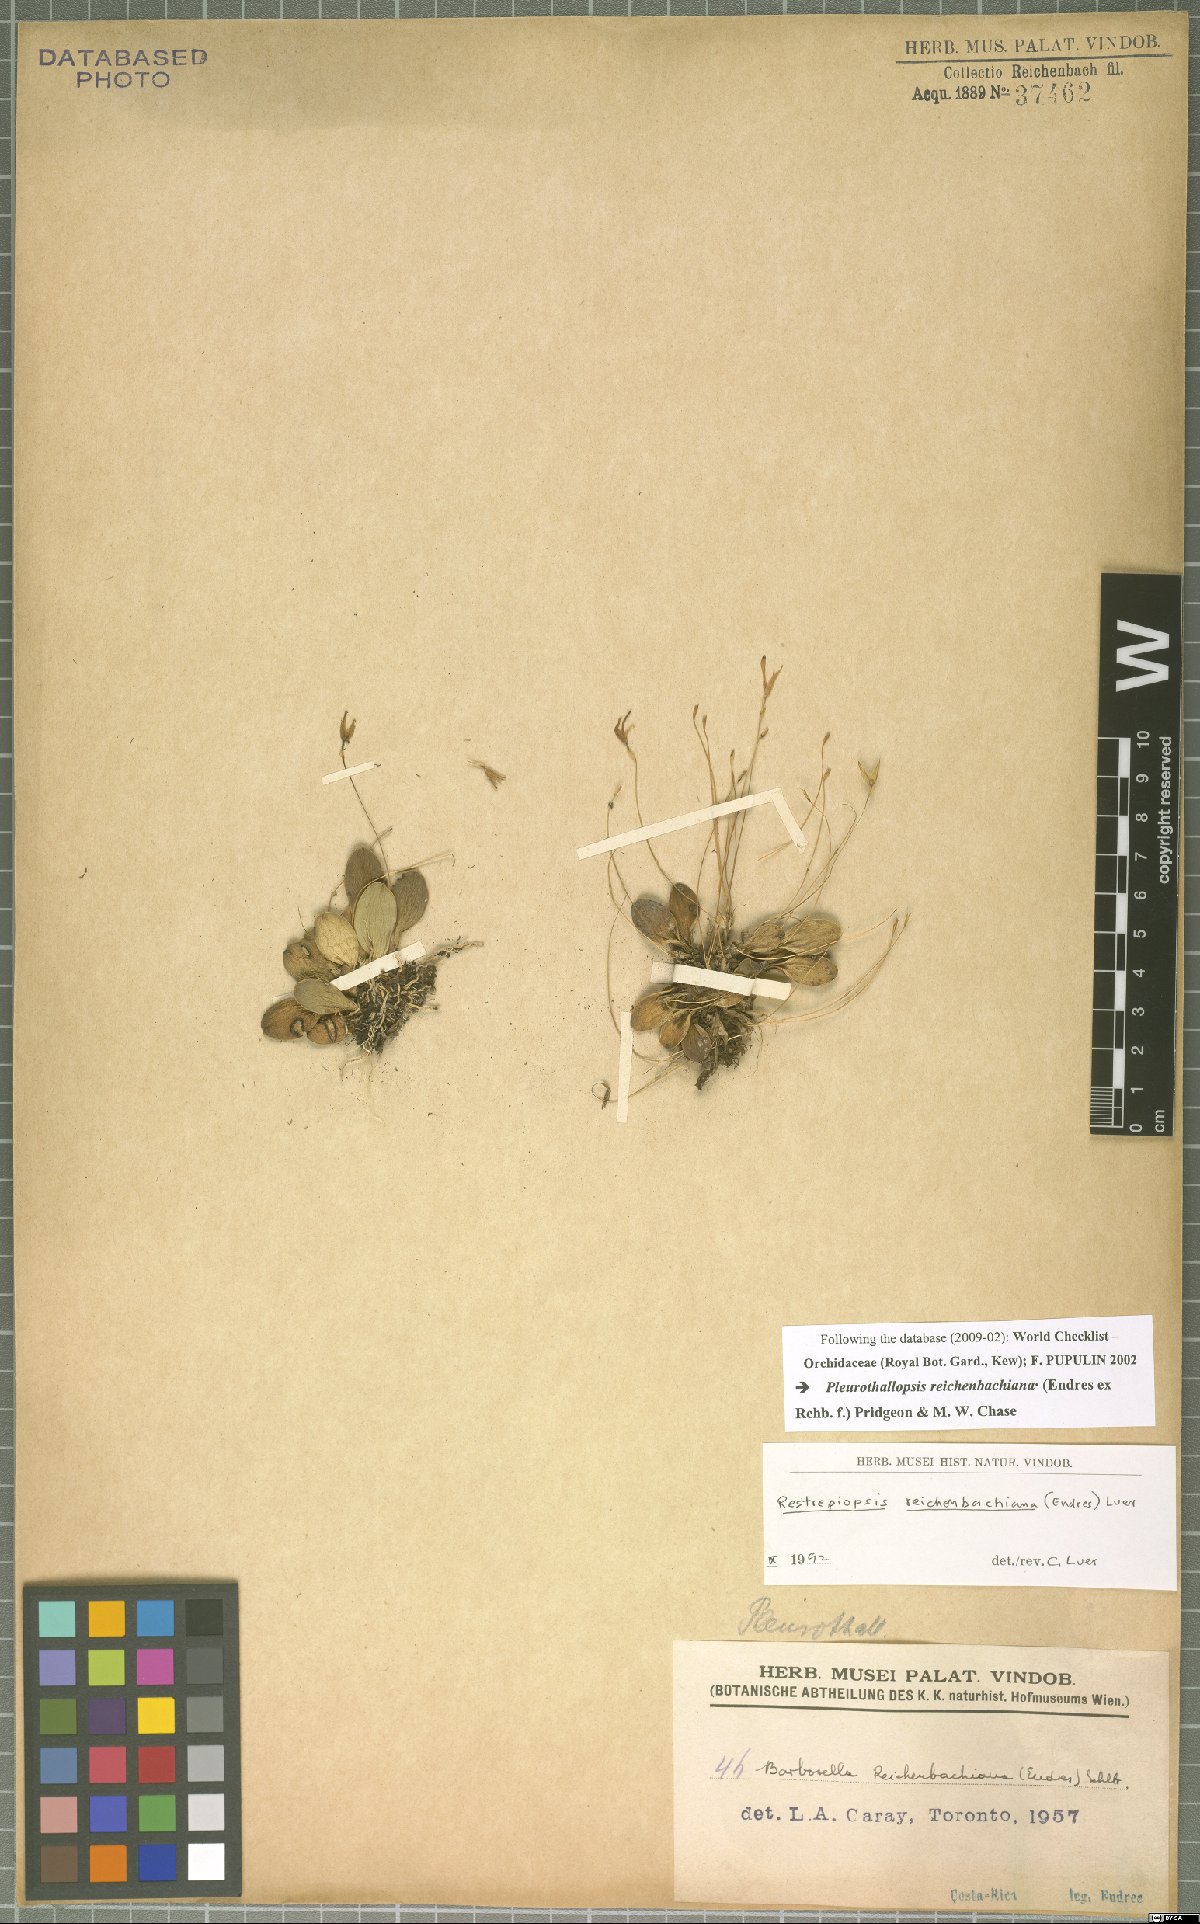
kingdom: Plantae
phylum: Tracheophyta
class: Liliopsida
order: Asparagales
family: Orchidaceae
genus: Pleurothallopsis
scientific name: Pleurothallopsis reichenbachiana
